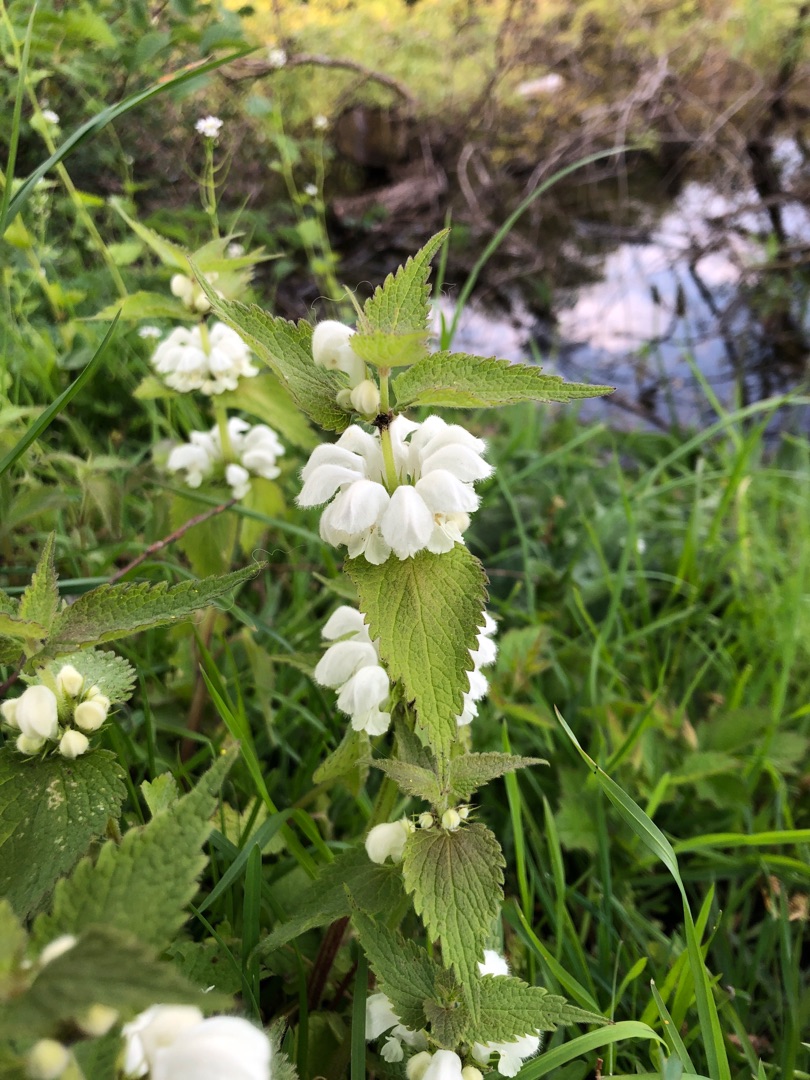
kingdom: Plantae
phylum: Tracheophyta
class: Magnoliopsida
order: Lamiales
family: Lamiaceae
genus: Lamium
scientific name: Lamium album
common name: Døvnælde
